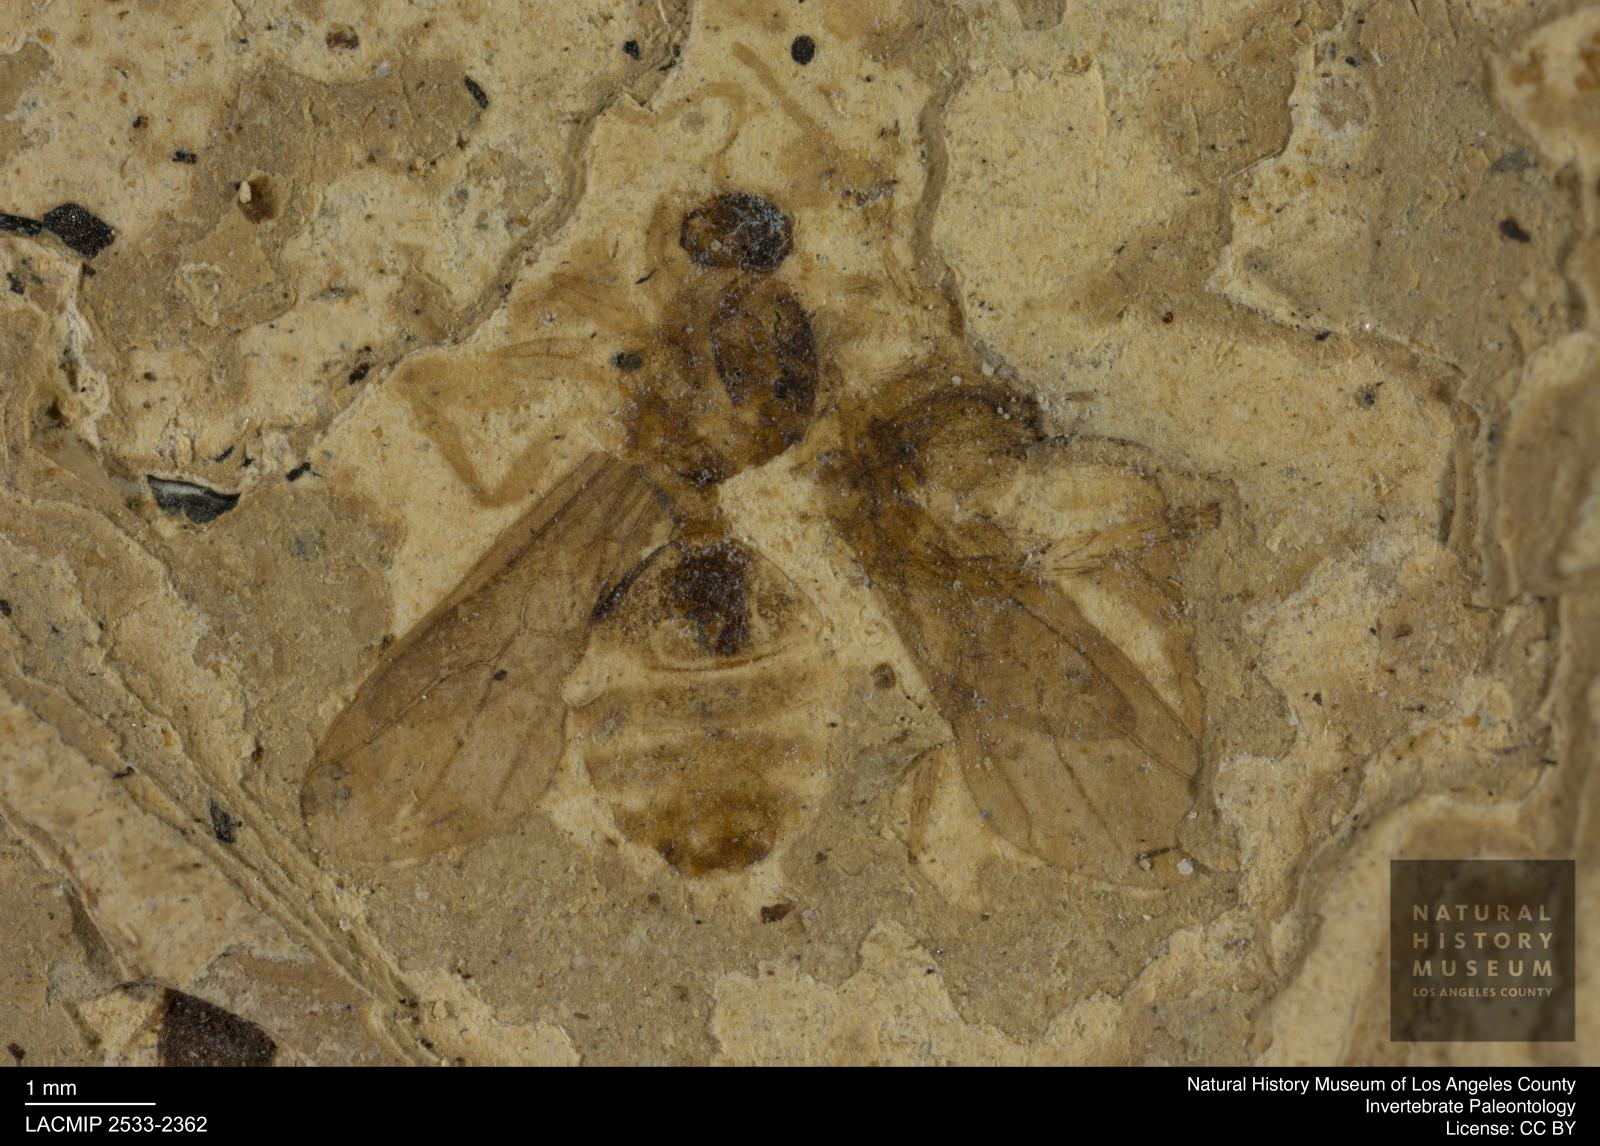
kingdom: Animalia
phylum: Arthropoda
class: Insecta
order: Hymenoptera
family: Formicidae
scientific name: Formicidae
